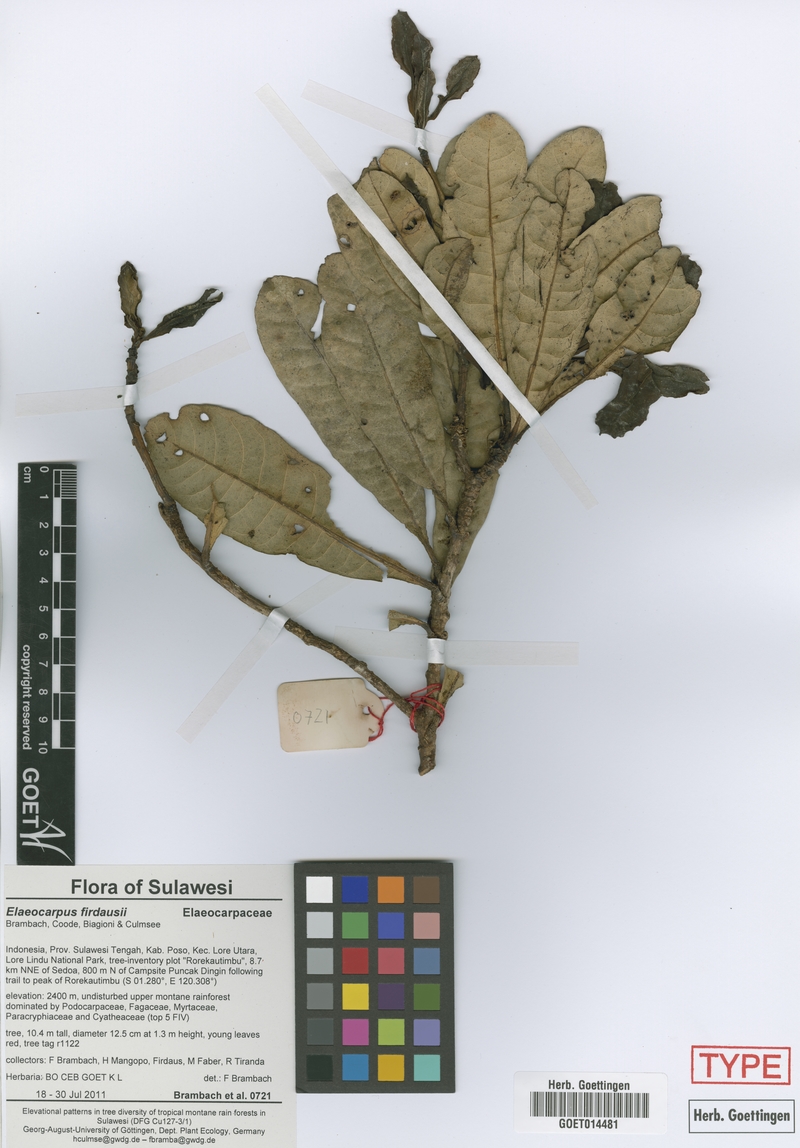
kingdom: Plantae
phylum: Tracheophyta
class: Magnoliopsida
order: Oxalidales
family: Elaeocarpaceae
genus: Elaeocarpus
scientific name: Elaeocarpus firdausii
